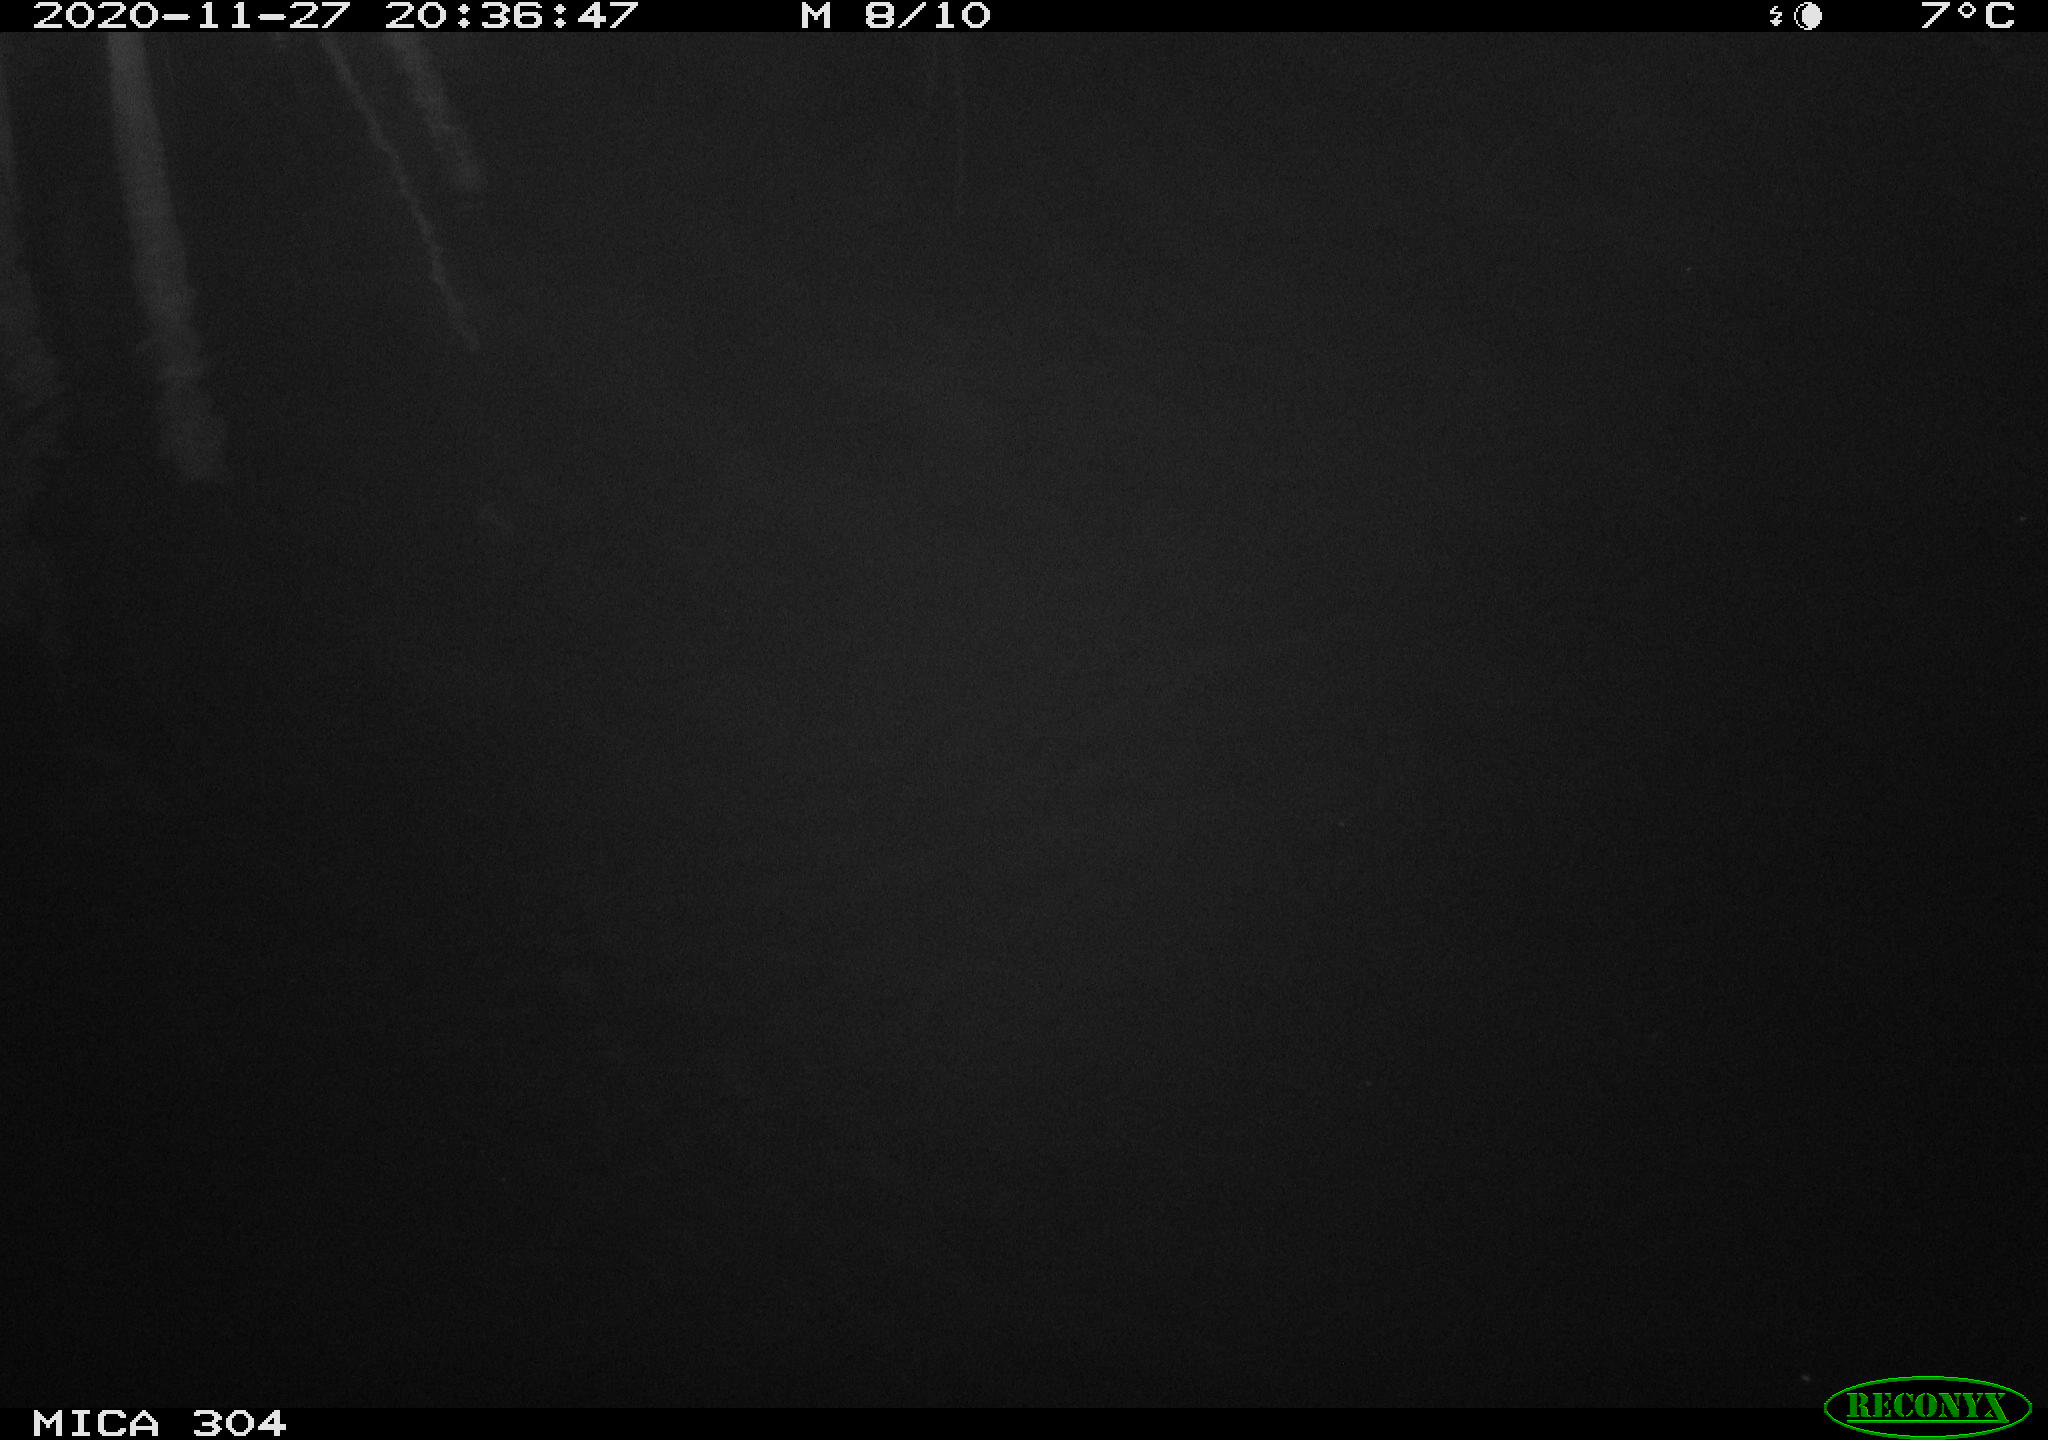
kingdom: Animalia
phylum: Chordata
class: Mammalia
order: Rodentia
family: Muridae
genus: Rattus
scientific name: Rattus norvegicus
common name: Brown rat
